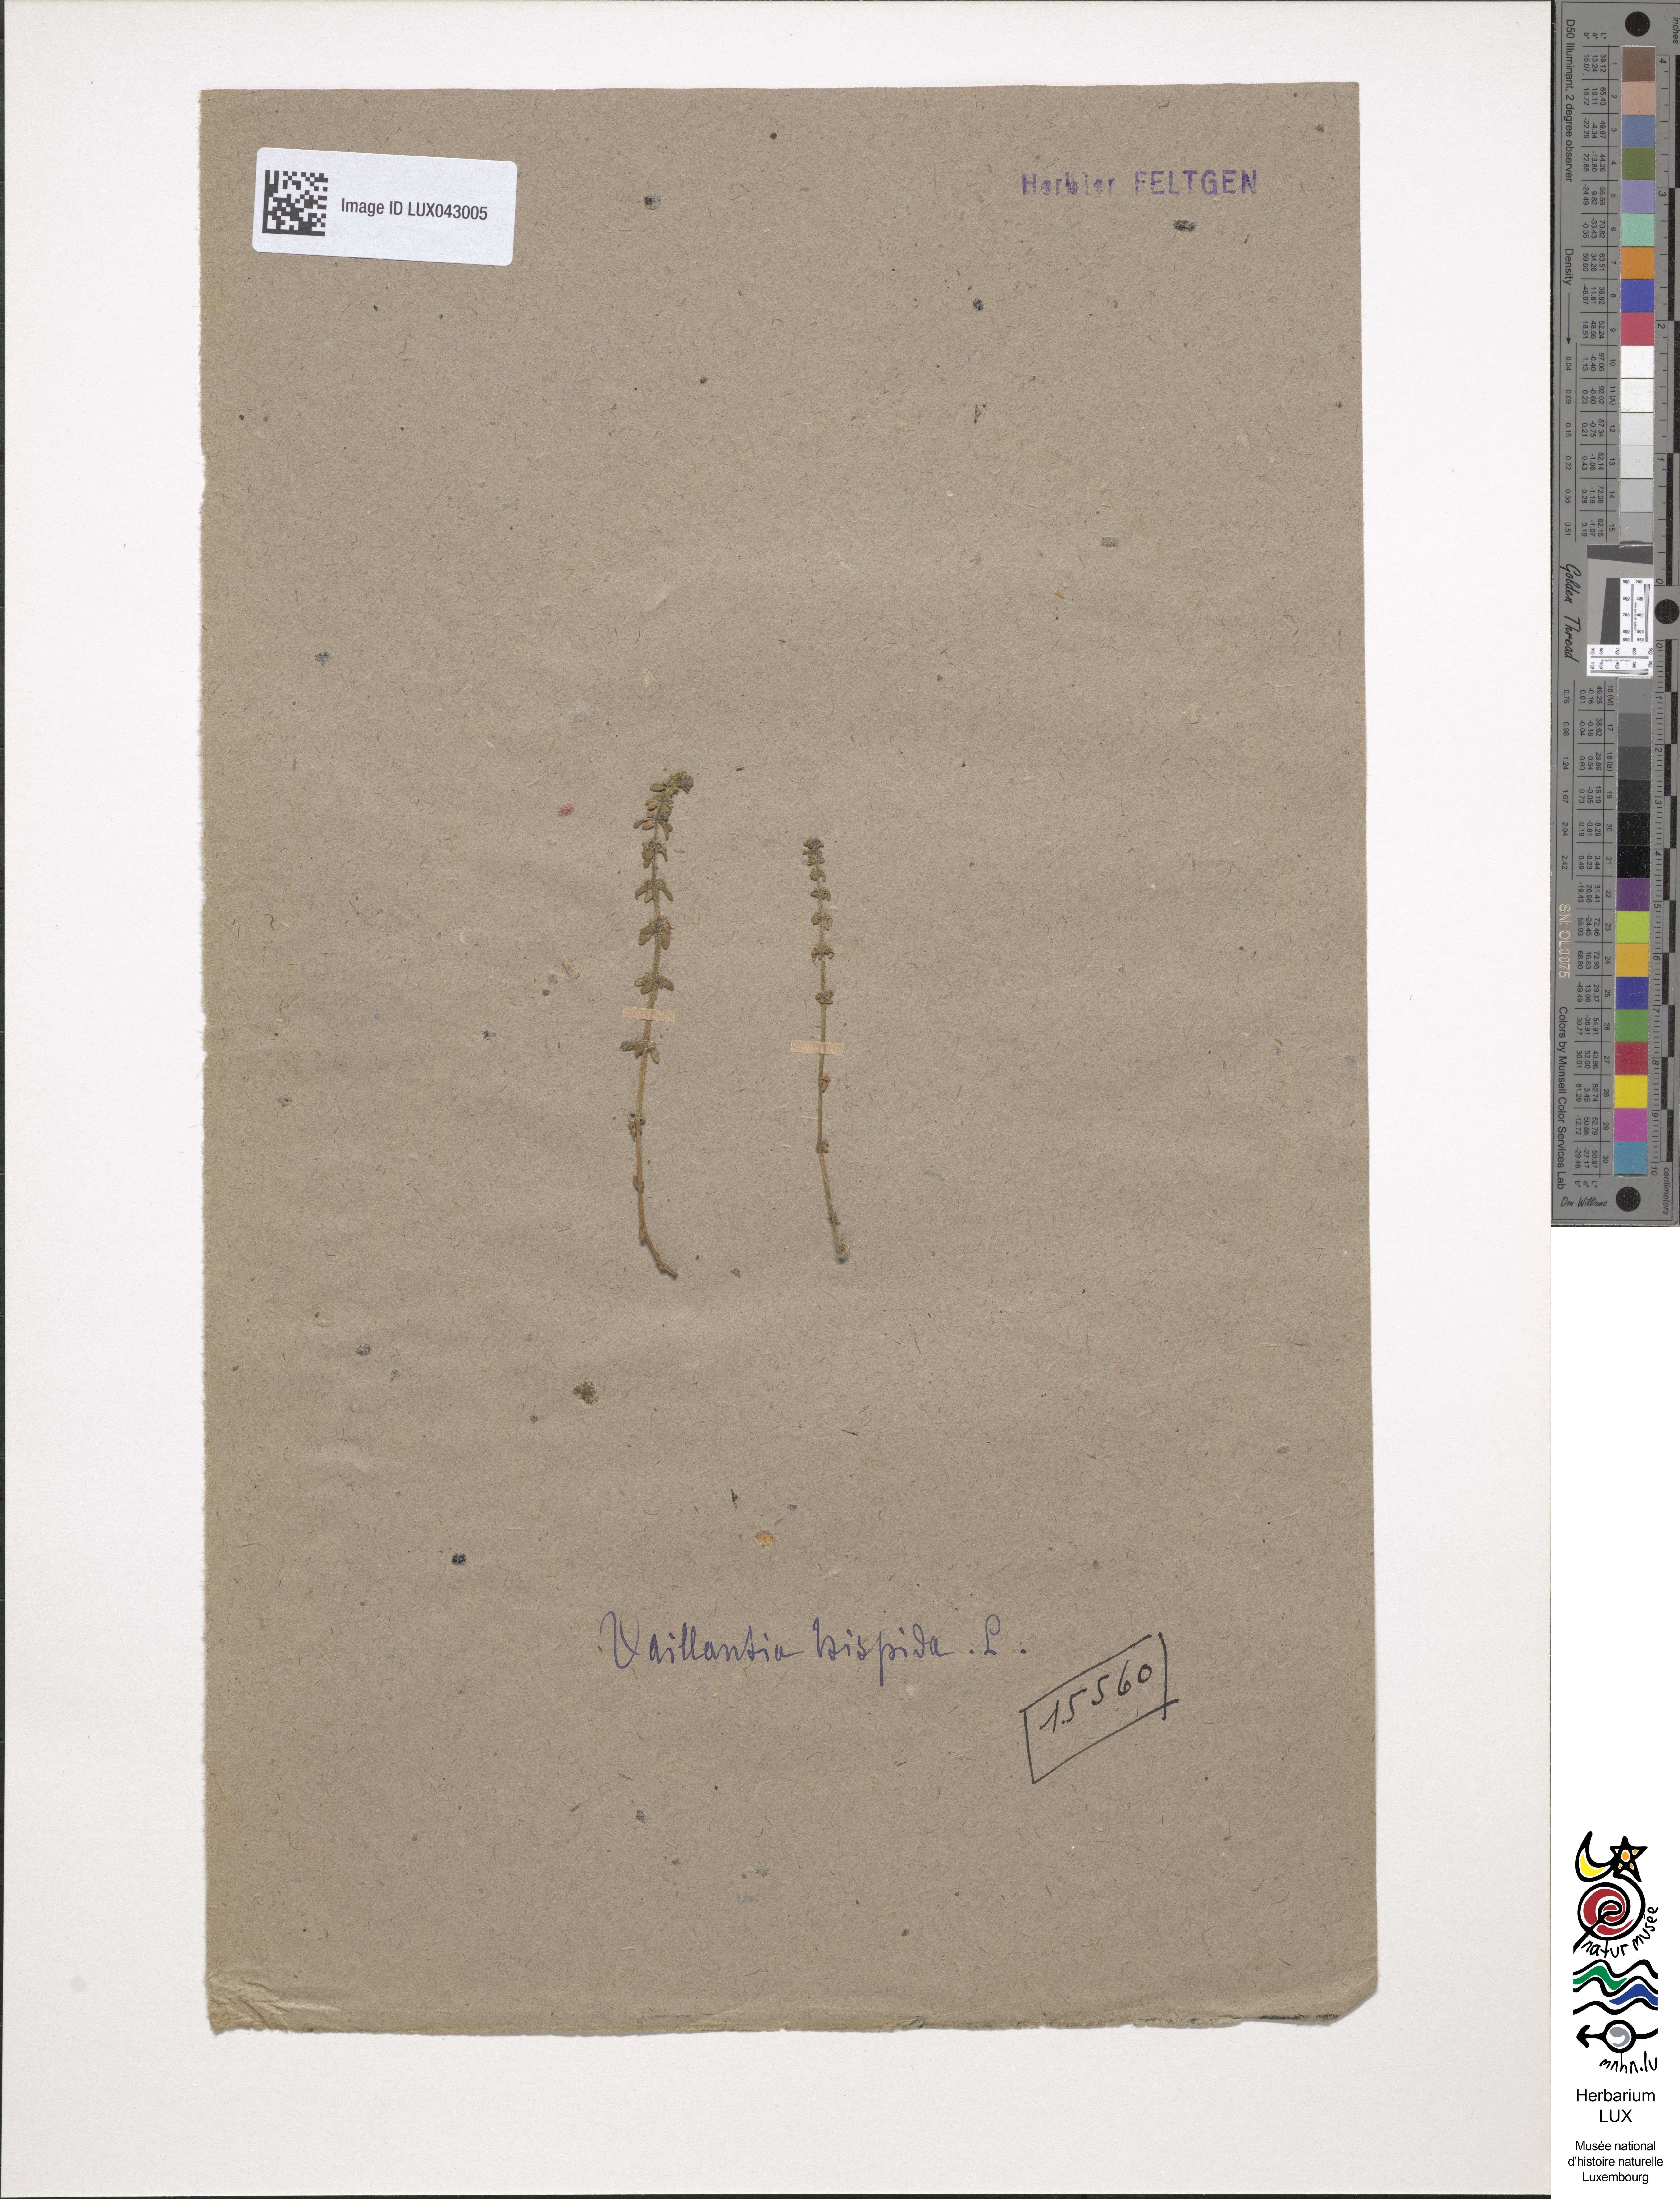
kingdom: Plantae
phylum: Tracheophyta
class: Magnoliopsida
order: Gentianales
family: Rubiaceae
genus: Valantia
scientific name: Valantia hispida
